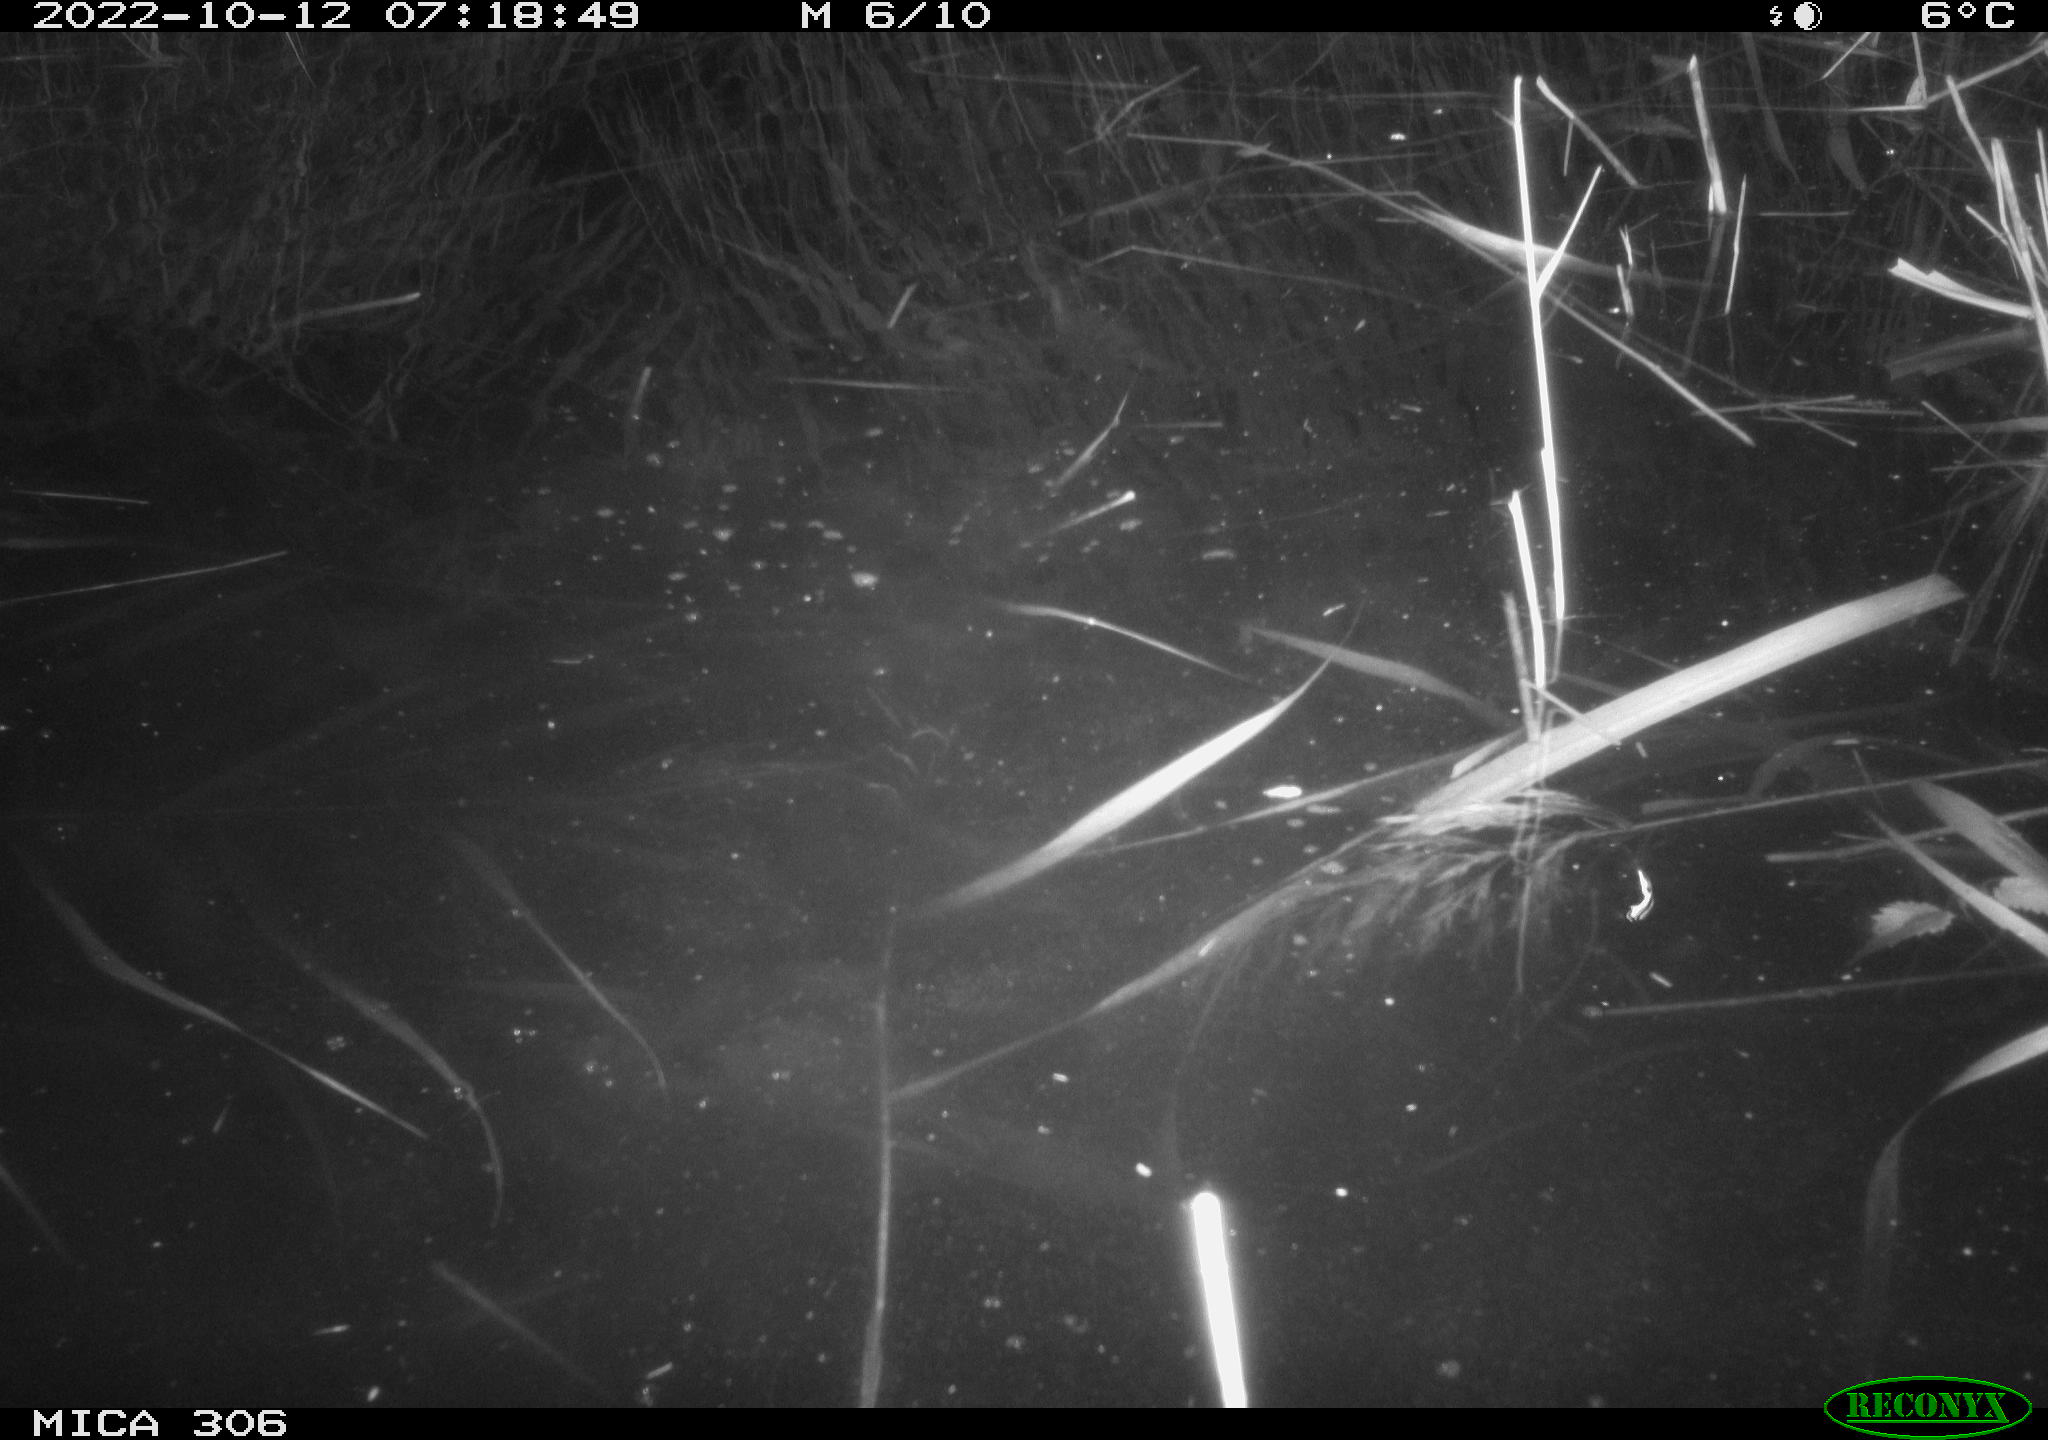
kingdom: Animalia
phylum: Chordata
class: Mammalia
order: Rodentia
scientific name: Rodentia
